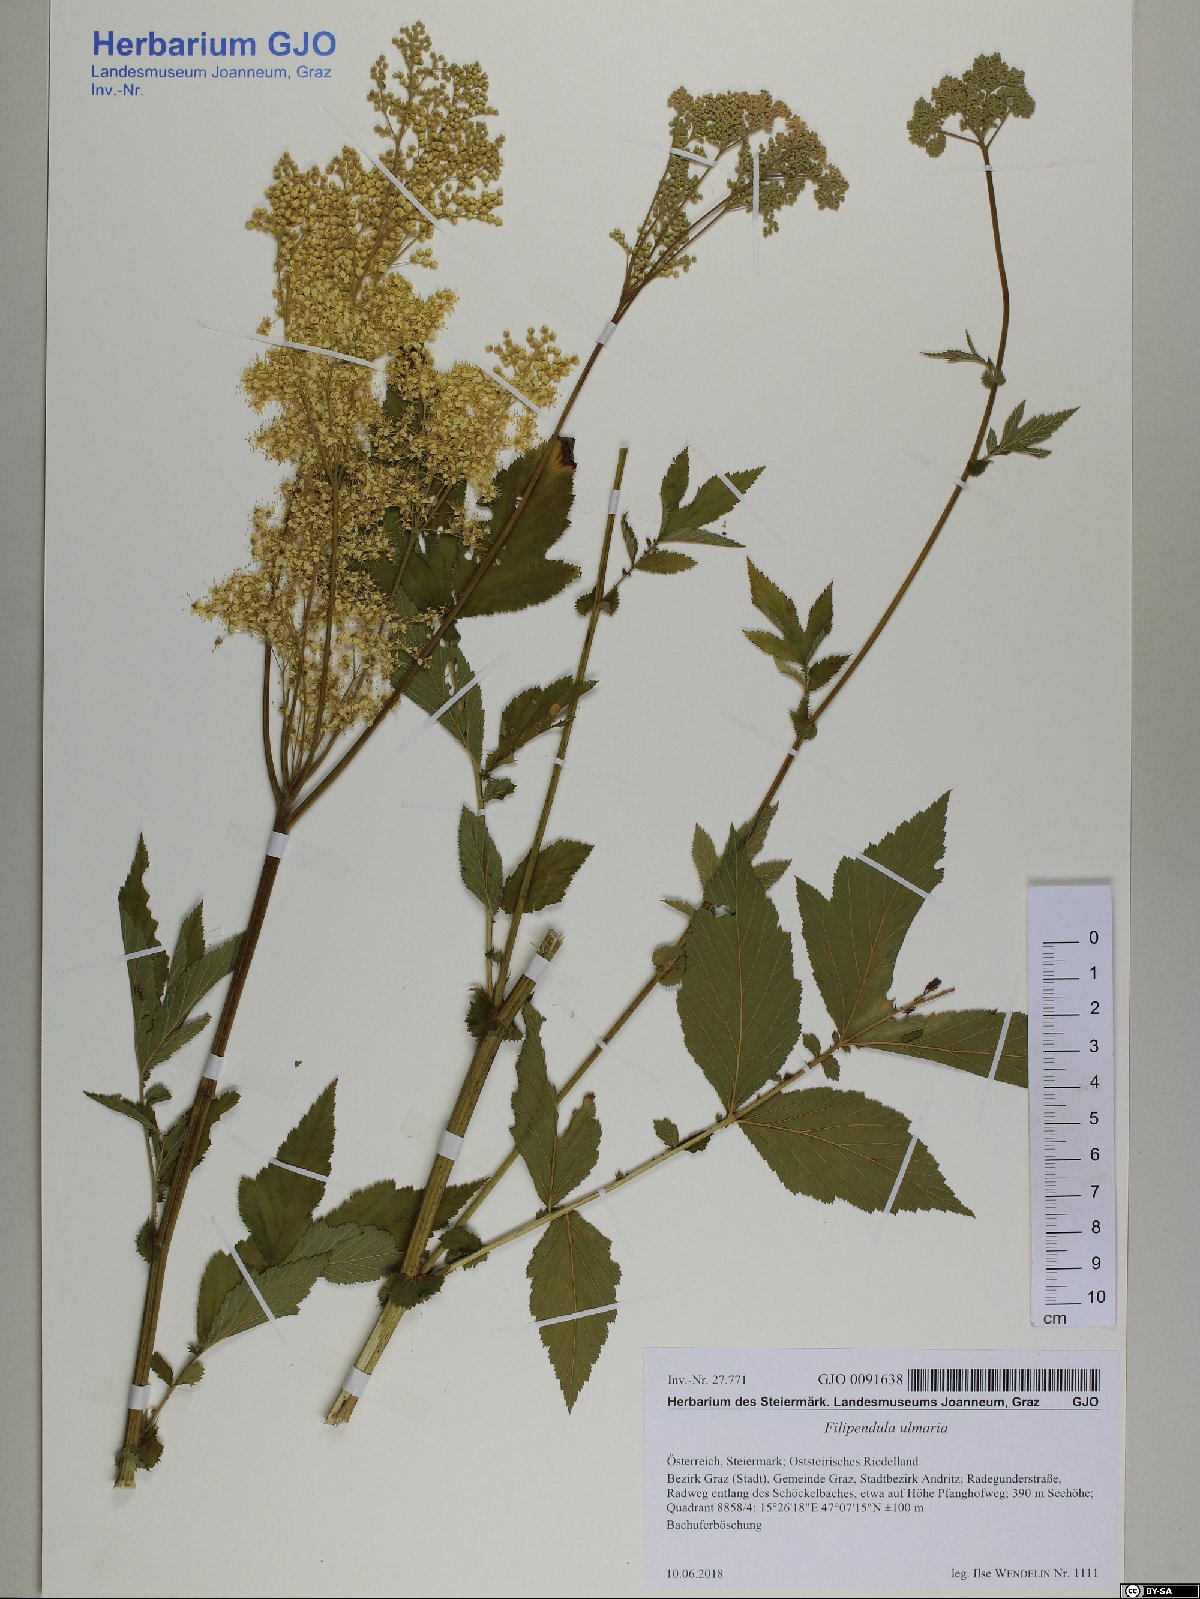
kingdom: Plantae
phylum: Tracheophyta
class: Magnoliopsida
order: Rosales
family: Rosaceae
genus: Filipendula
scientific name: Filipendula ulmaria
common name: Meadowsweet
